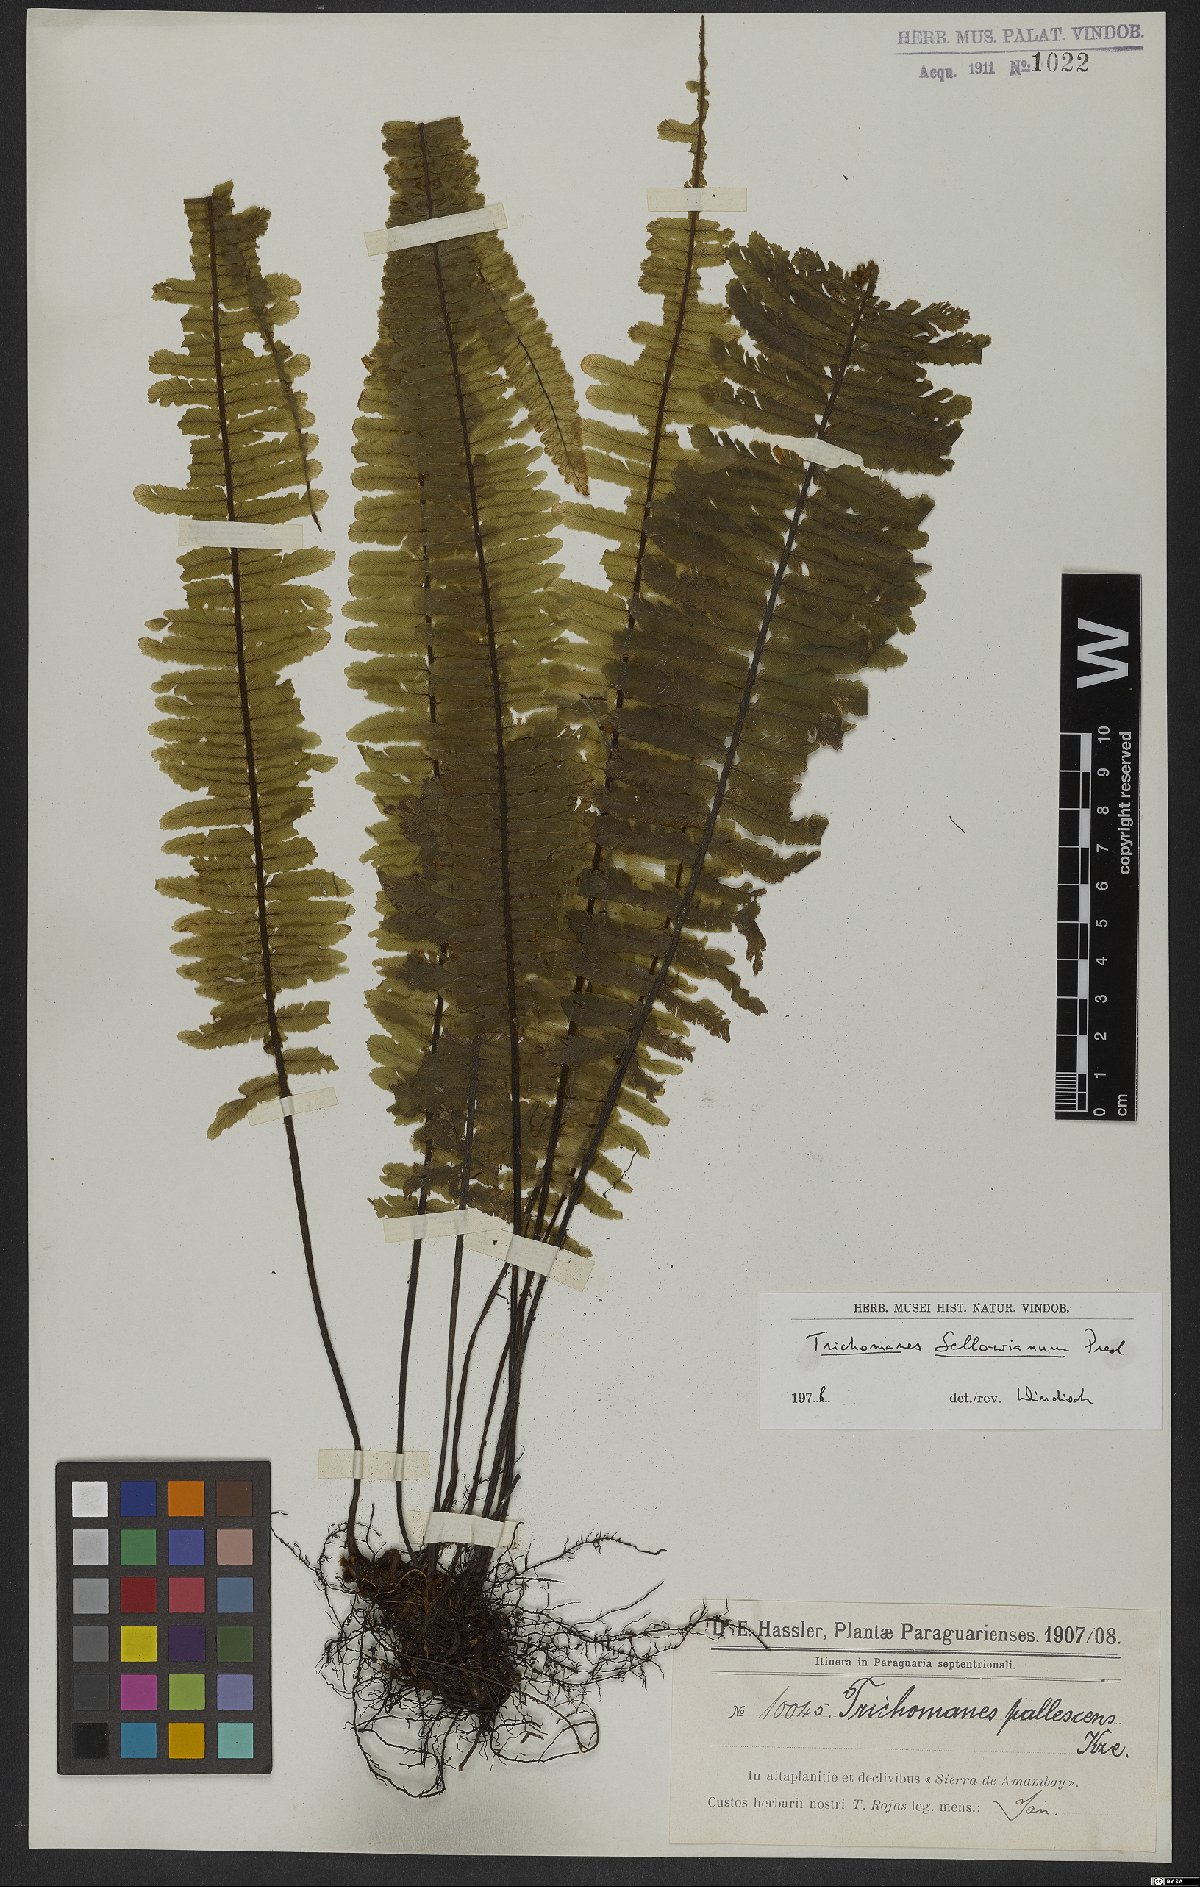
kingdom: Plantae
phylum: Tracheophyta
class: Polypodiopsida
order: Hymenophyllales
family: Hymenophyllaceae
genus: Trichomanes
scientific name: Trichomanes cristatum
